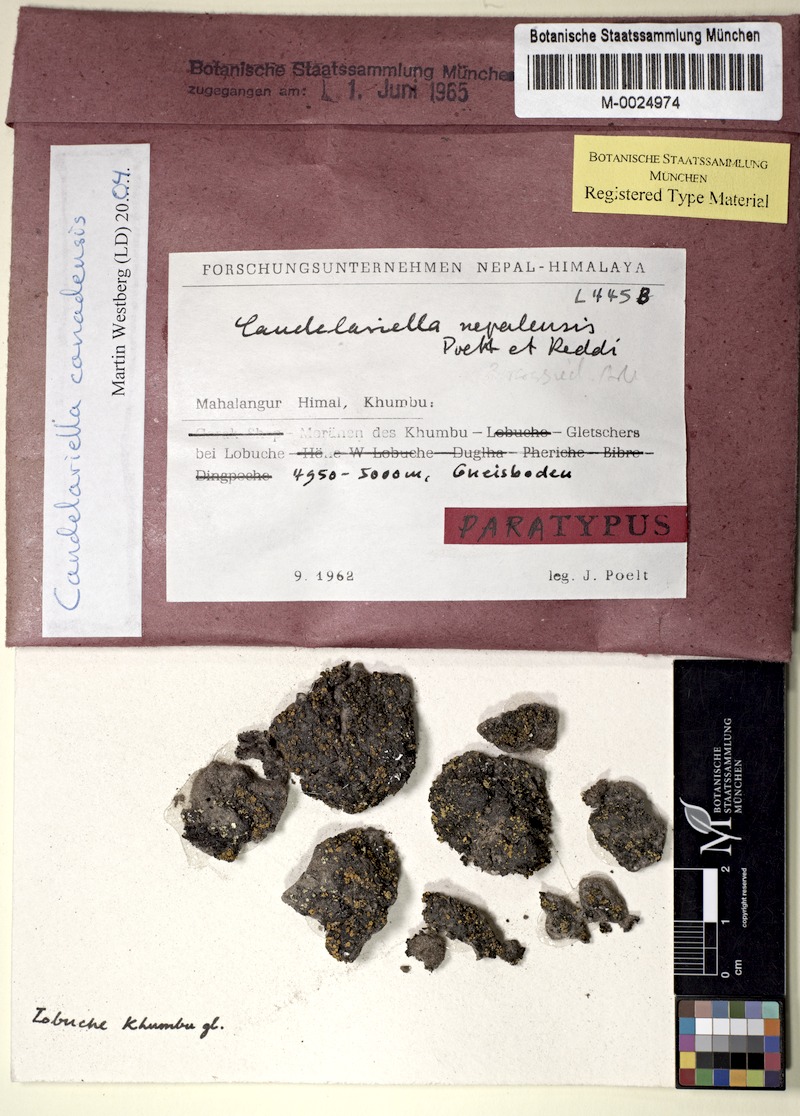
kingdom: Fungi
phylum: Ascomycota
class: Candelariomycetes
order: Candelariales
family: Candelariaceae
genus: Opeltiella
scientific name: Opeltiella canadensis
